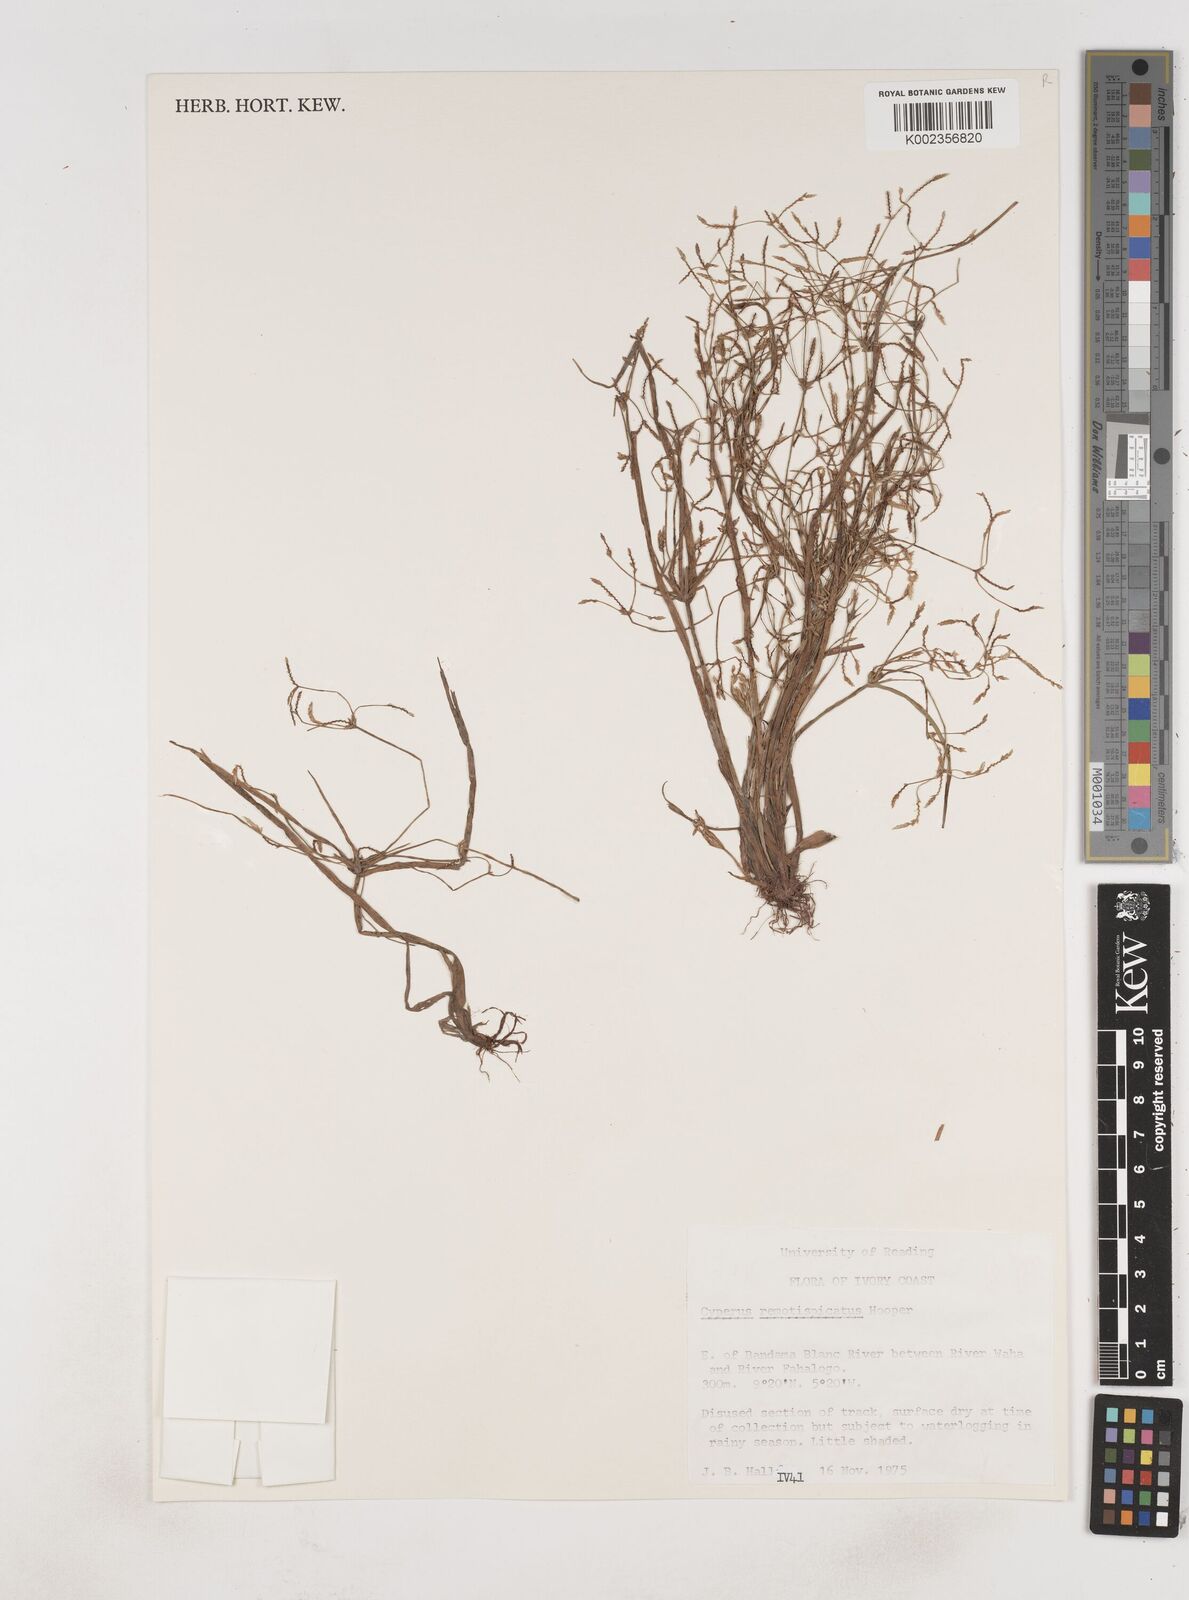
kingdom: Plantae
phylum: Tracheophyta
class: Liliopsida
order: Poales
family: Cyperaceae
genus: Cyperus
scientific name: Cyperus remotispicatus
